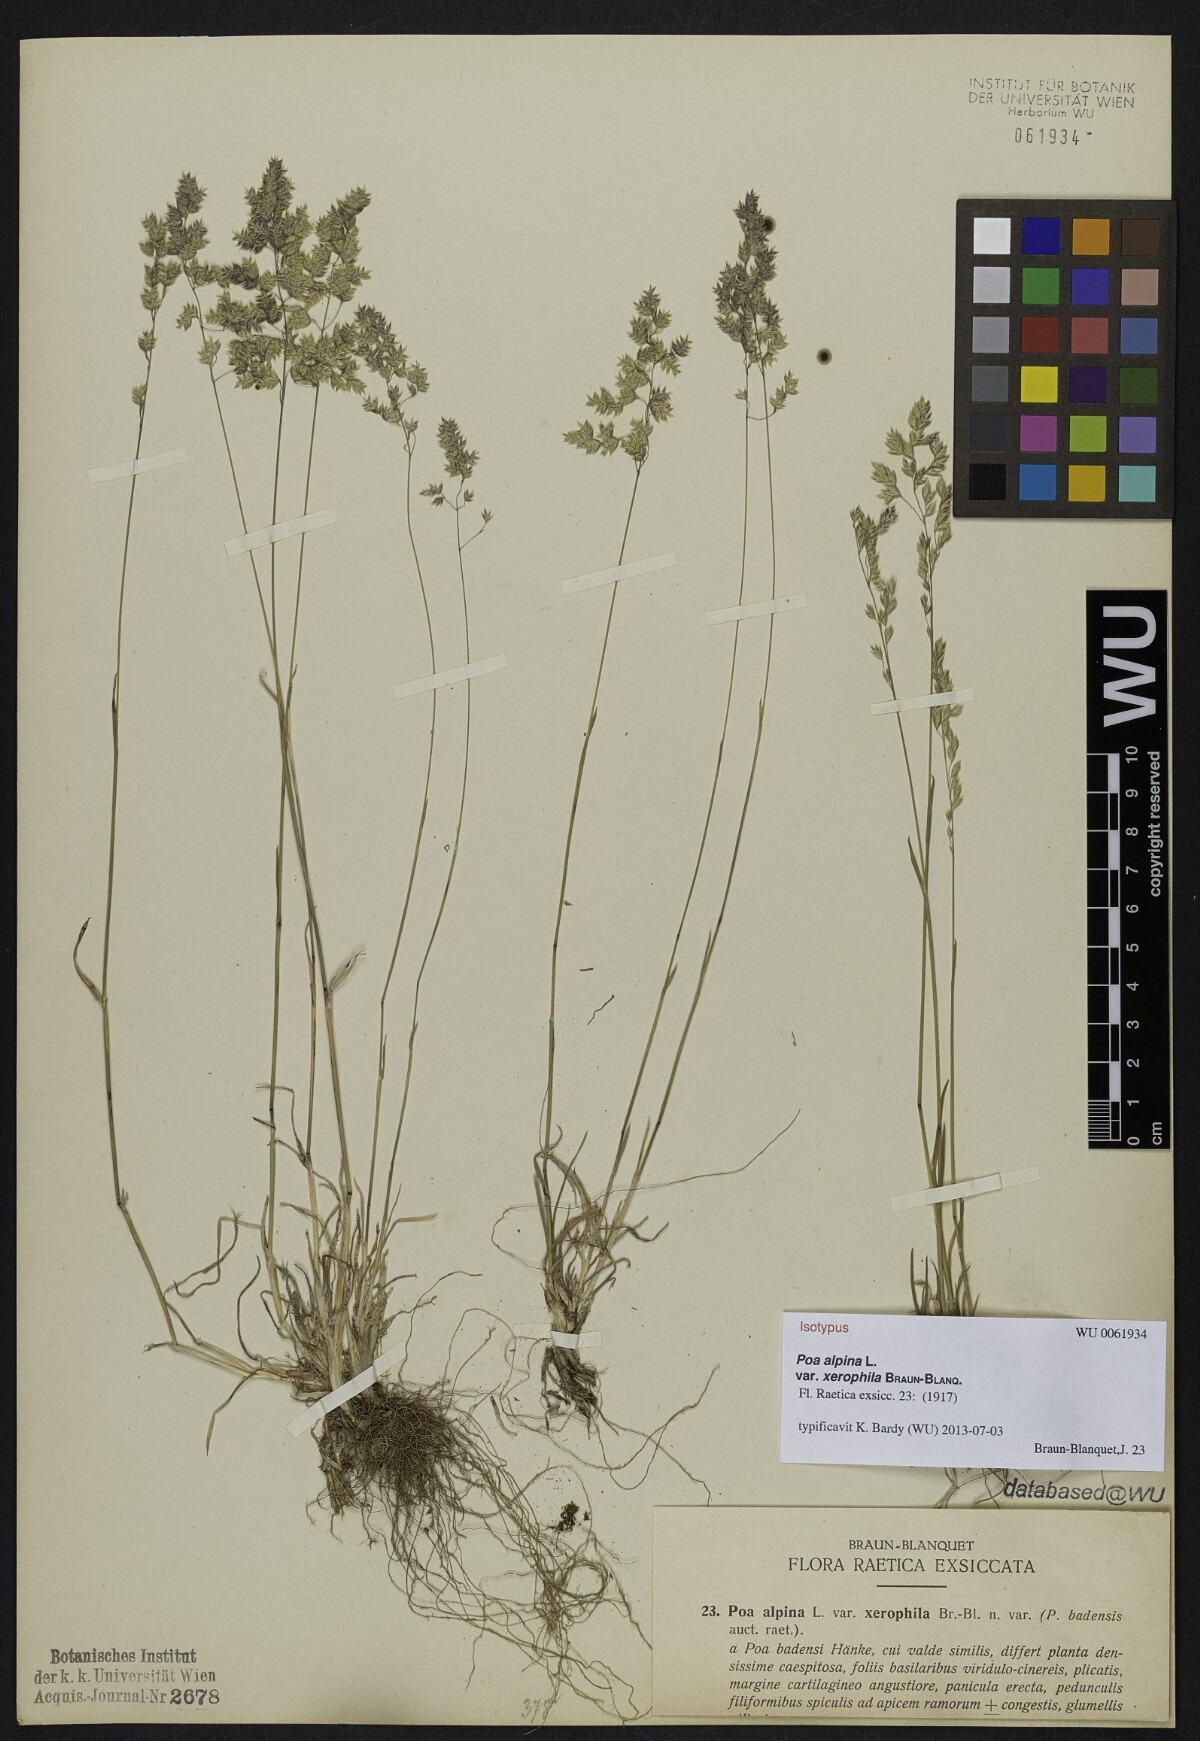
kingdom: Plantae
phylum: Tracheophyta
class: Liliopsida
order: Poales
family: Poaceae
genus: Poa
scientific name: Poa molinerii
